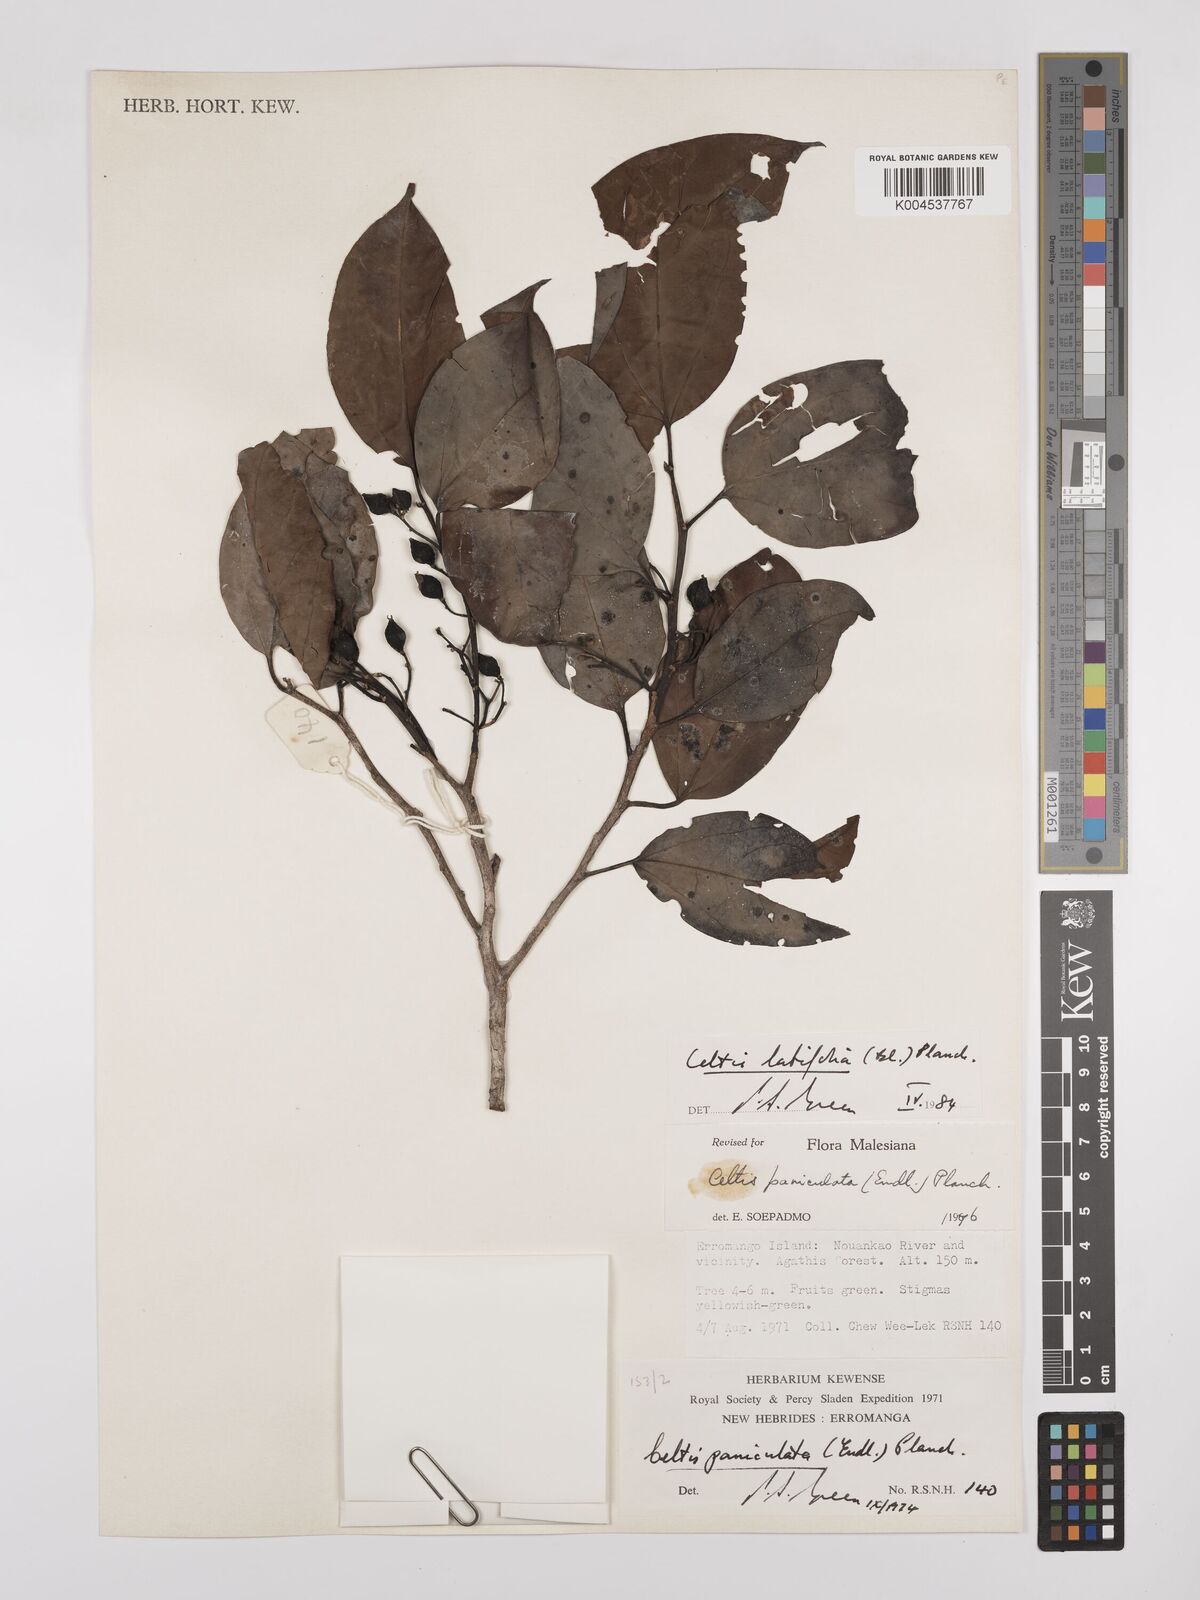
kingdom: Plantae
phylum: Tracheophyta
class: Magnoliopsida
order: Rosales
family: Cannabaceae
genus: Celtis
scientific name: Celtis latifolia
